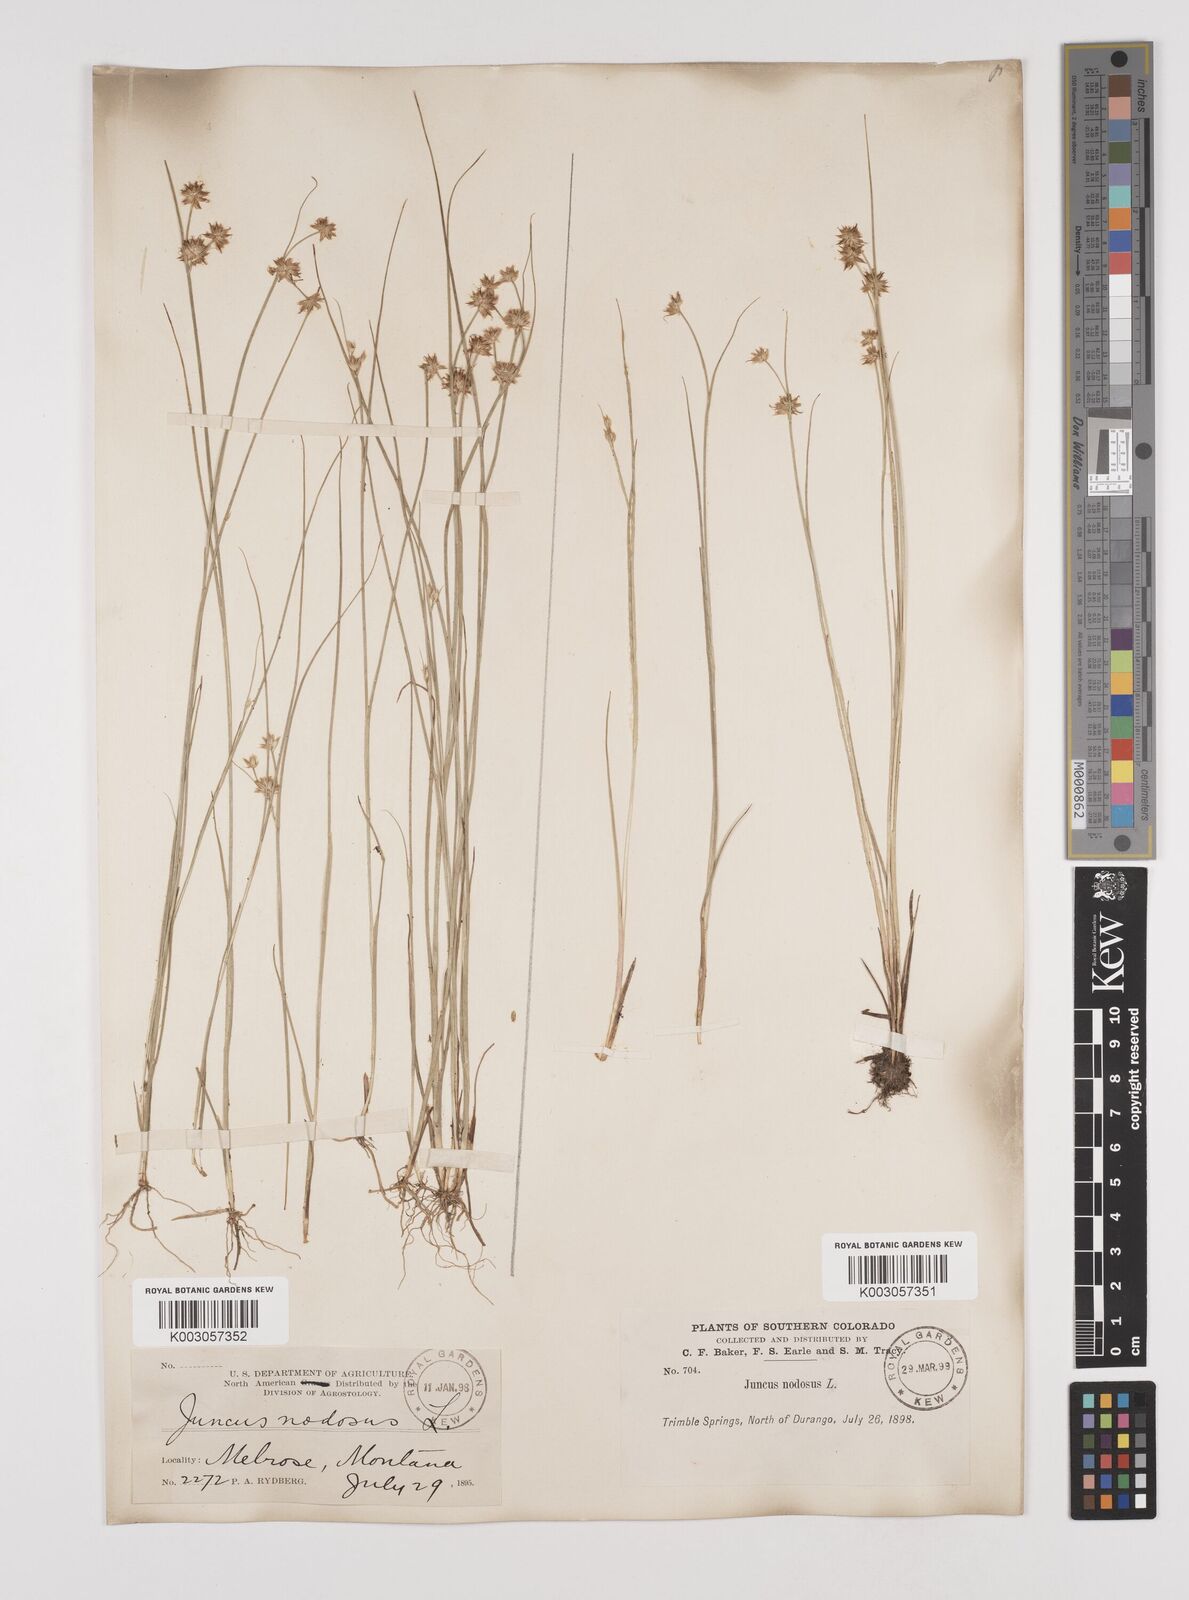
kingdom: Plantae
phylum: Tracheophyta
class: Liliopsida
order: Poales
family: Juncaceae
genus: Juncus
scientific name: Juncus nodosus
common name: Knotted rush
